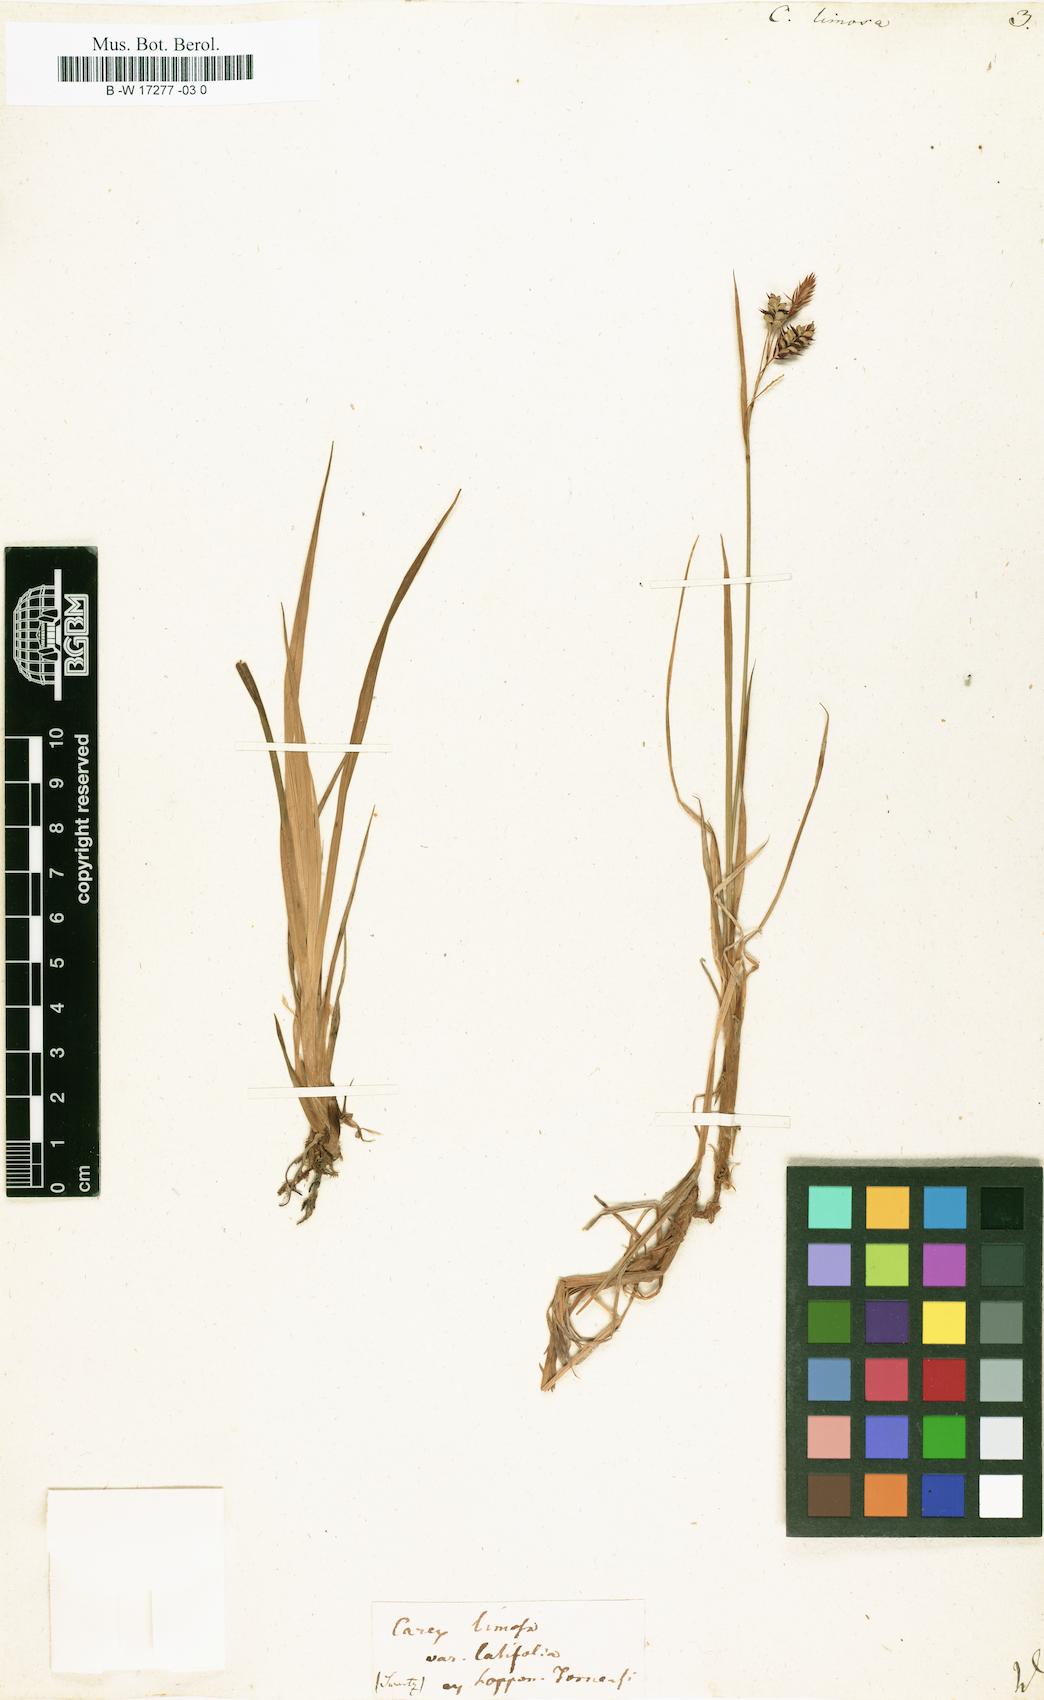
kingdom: Plantae
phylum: Tracheophyta
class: Liliopsida
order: Poales
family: Cyperaceae
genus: Carex
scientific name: Carex limosa
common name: Bog sedge
